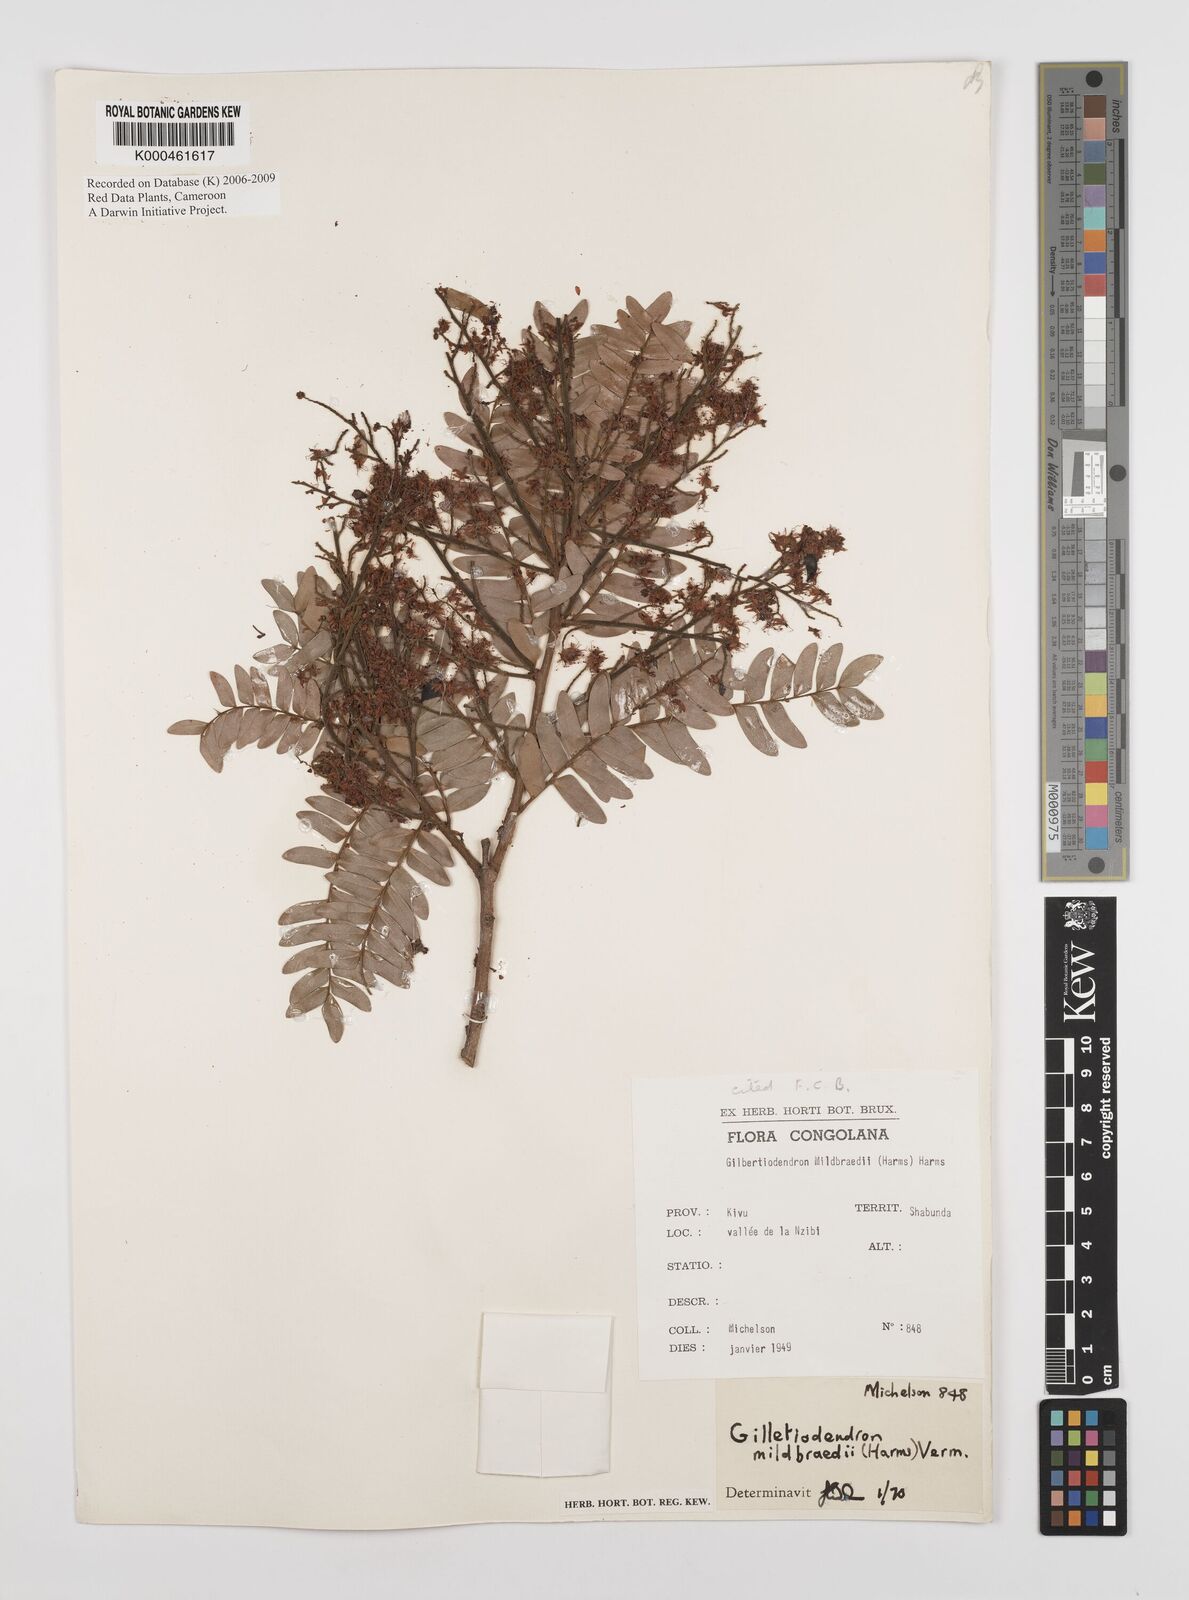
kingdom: Plantae
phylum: Tracheophyta
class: Magnoliopsida
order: Fabales
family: Fabaceae
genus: Gilletiodendron
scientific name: Gilletiodendron mildbraedii
